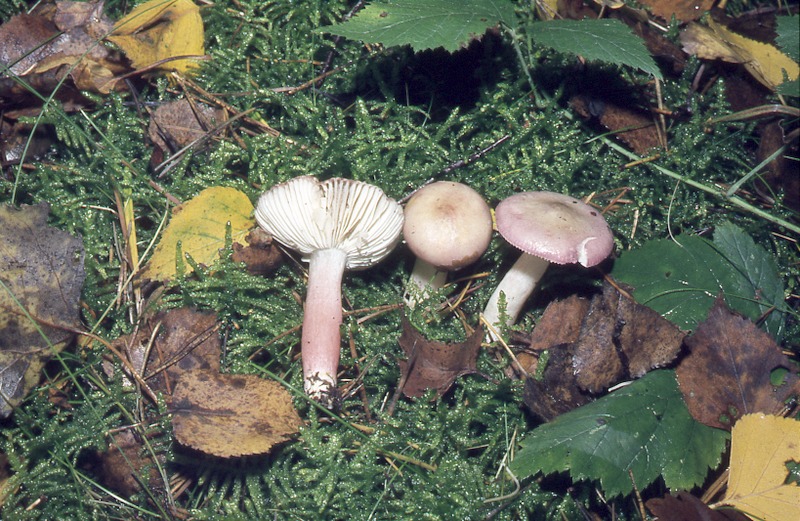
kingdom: Fungi
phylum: Basidiomycota
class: Agaricomycetes
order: Russulales
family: Russulaceae
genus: Russula
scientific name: Russula gracillima
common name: Slender brittlegill
